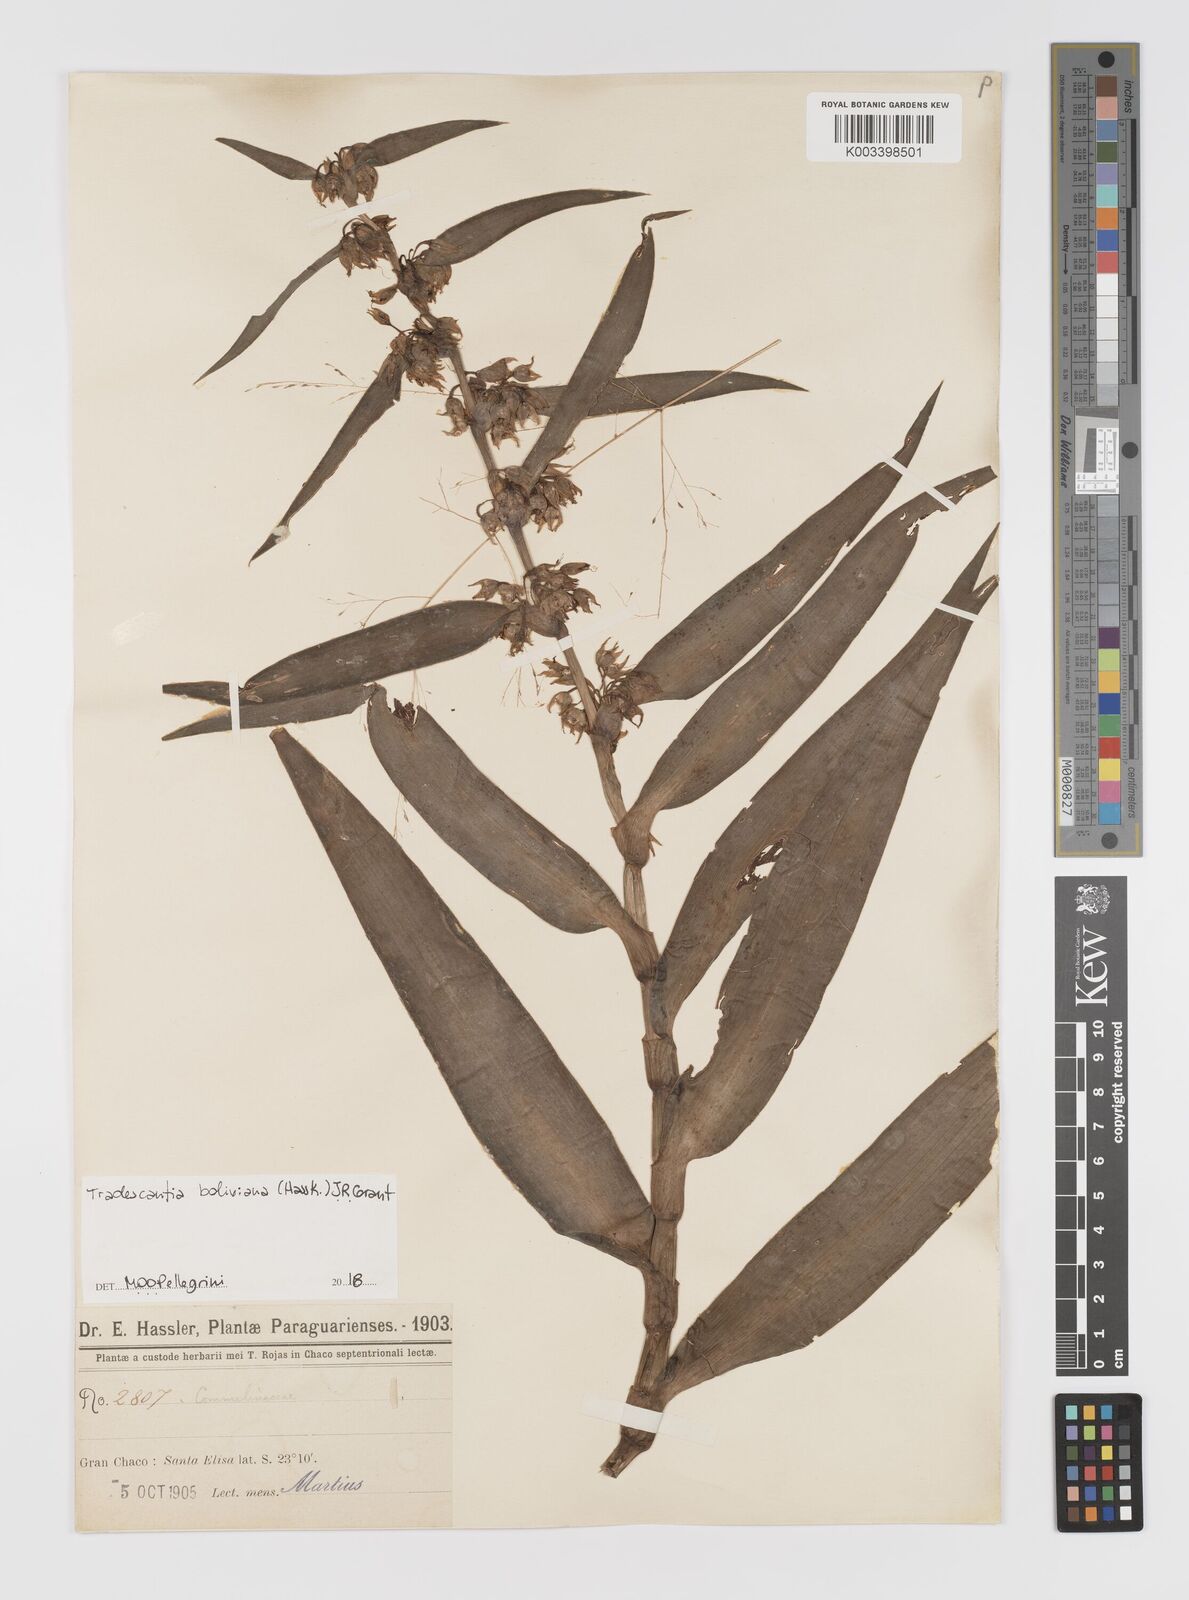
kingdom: Plantae
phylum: Tracheophyta
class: Liliopsida
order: Commelinales
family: Commelinaceae
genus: Tradescantia
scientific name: Tradescantia boliviana
